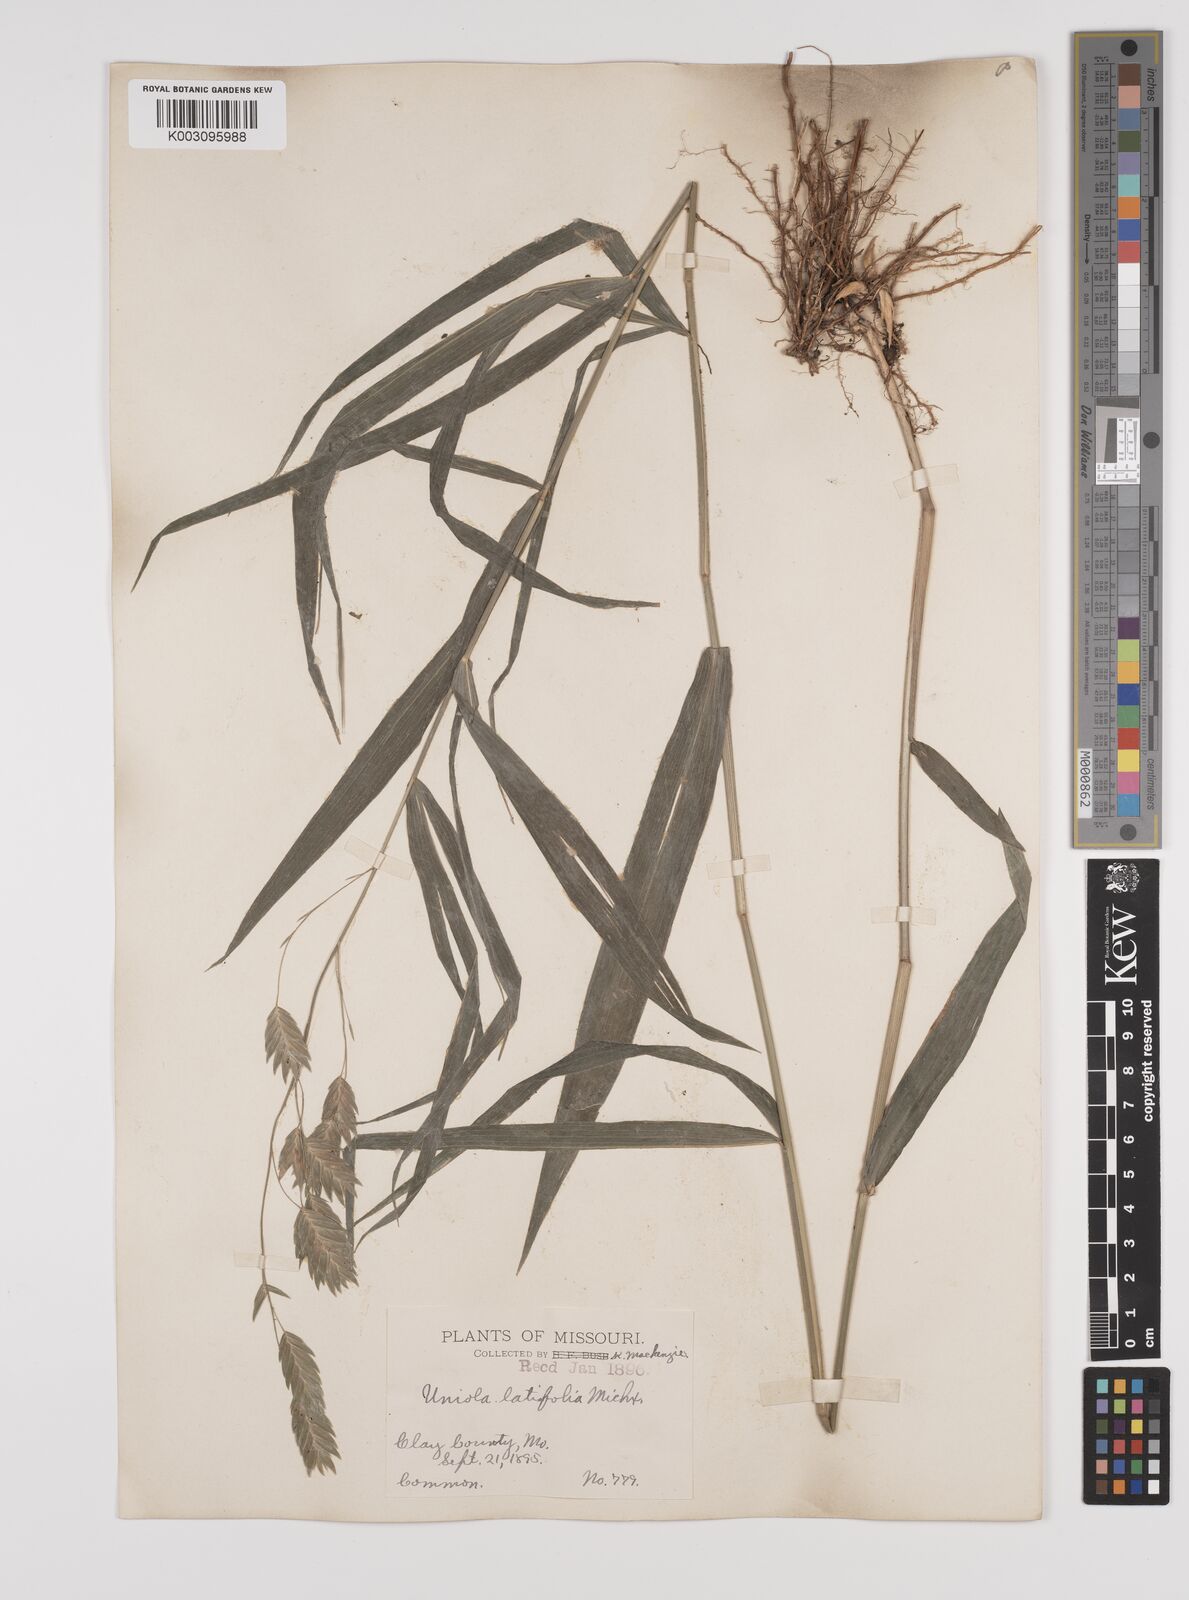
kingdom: Plantae
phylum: Tracheophyta
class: Liliopsida
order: Poales
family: Poaceae
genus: Chasmanthium
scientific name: Chasmanthium latifolium
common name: Broad-leaved chasmanthium
